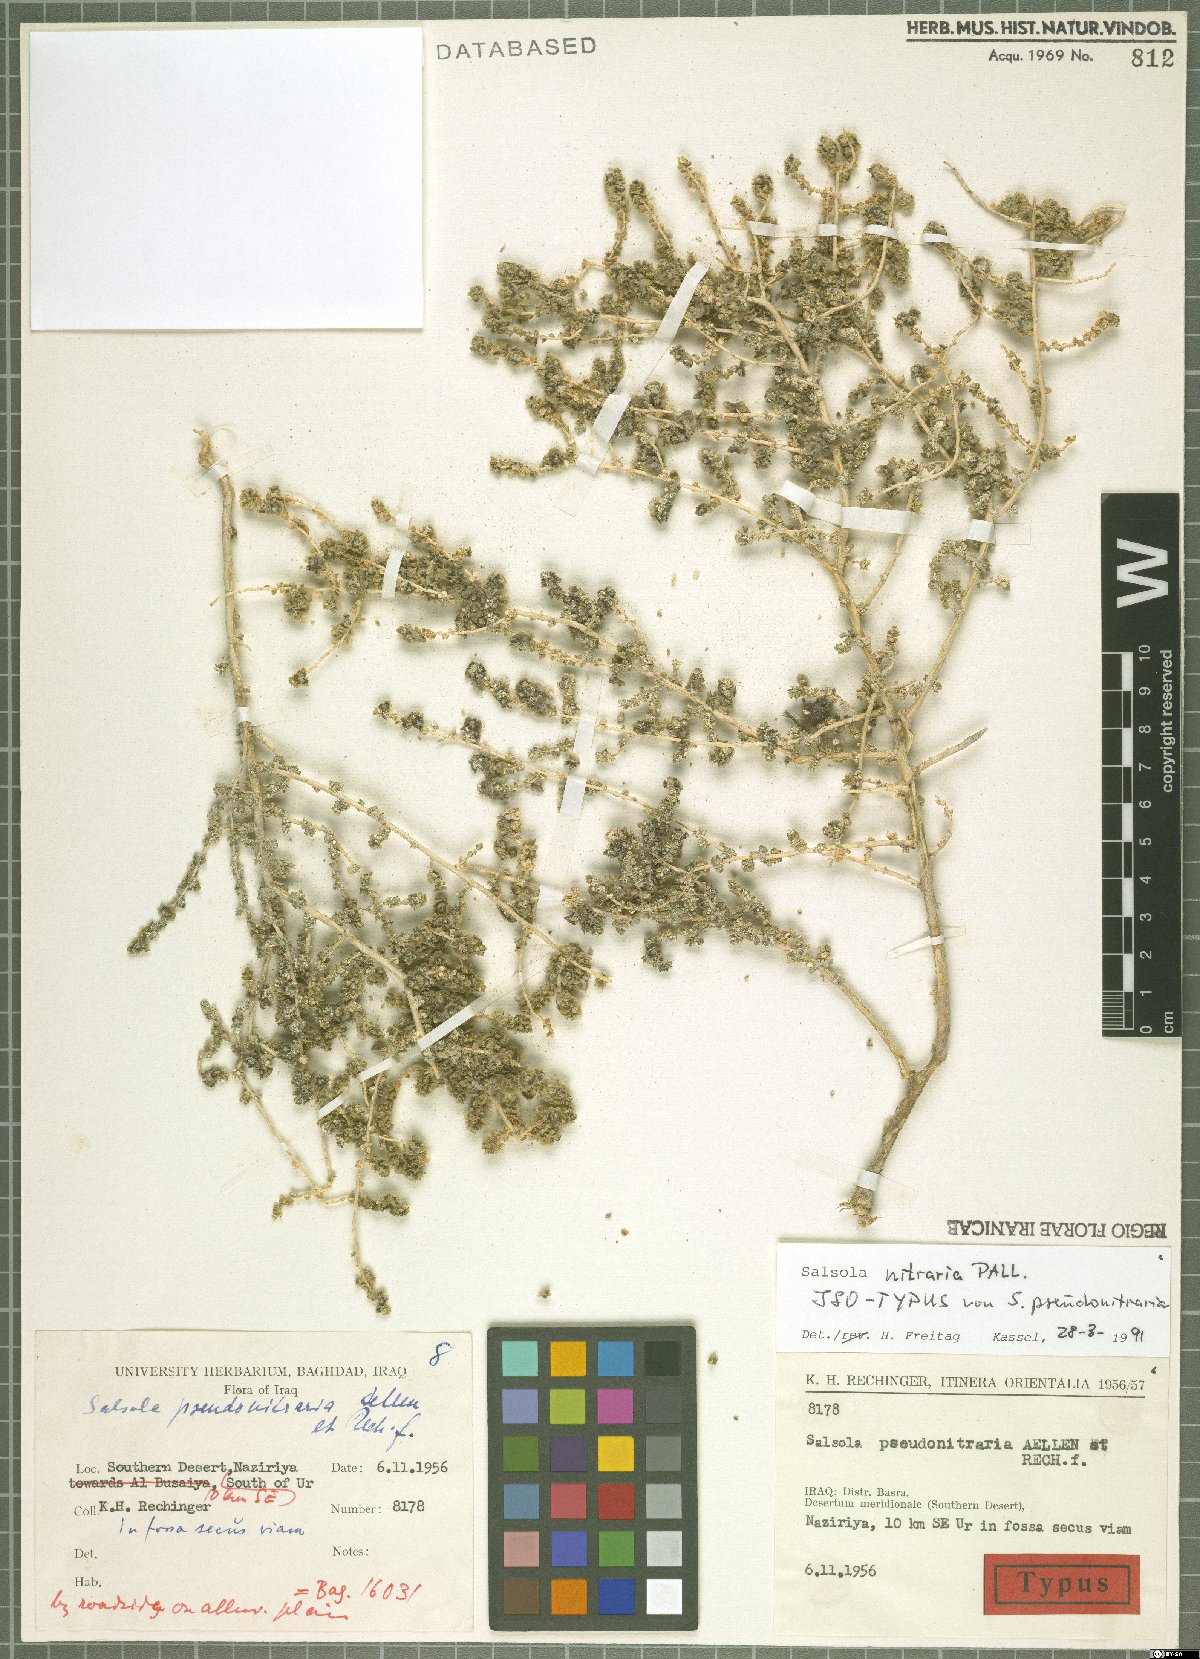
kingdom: Plantae
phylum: Tracheophyta
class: Magnoliopsida
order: Caryophyllales
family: Amaranthaceae
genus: Nitrosalsola
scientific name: Nitrosalsola nitraria
